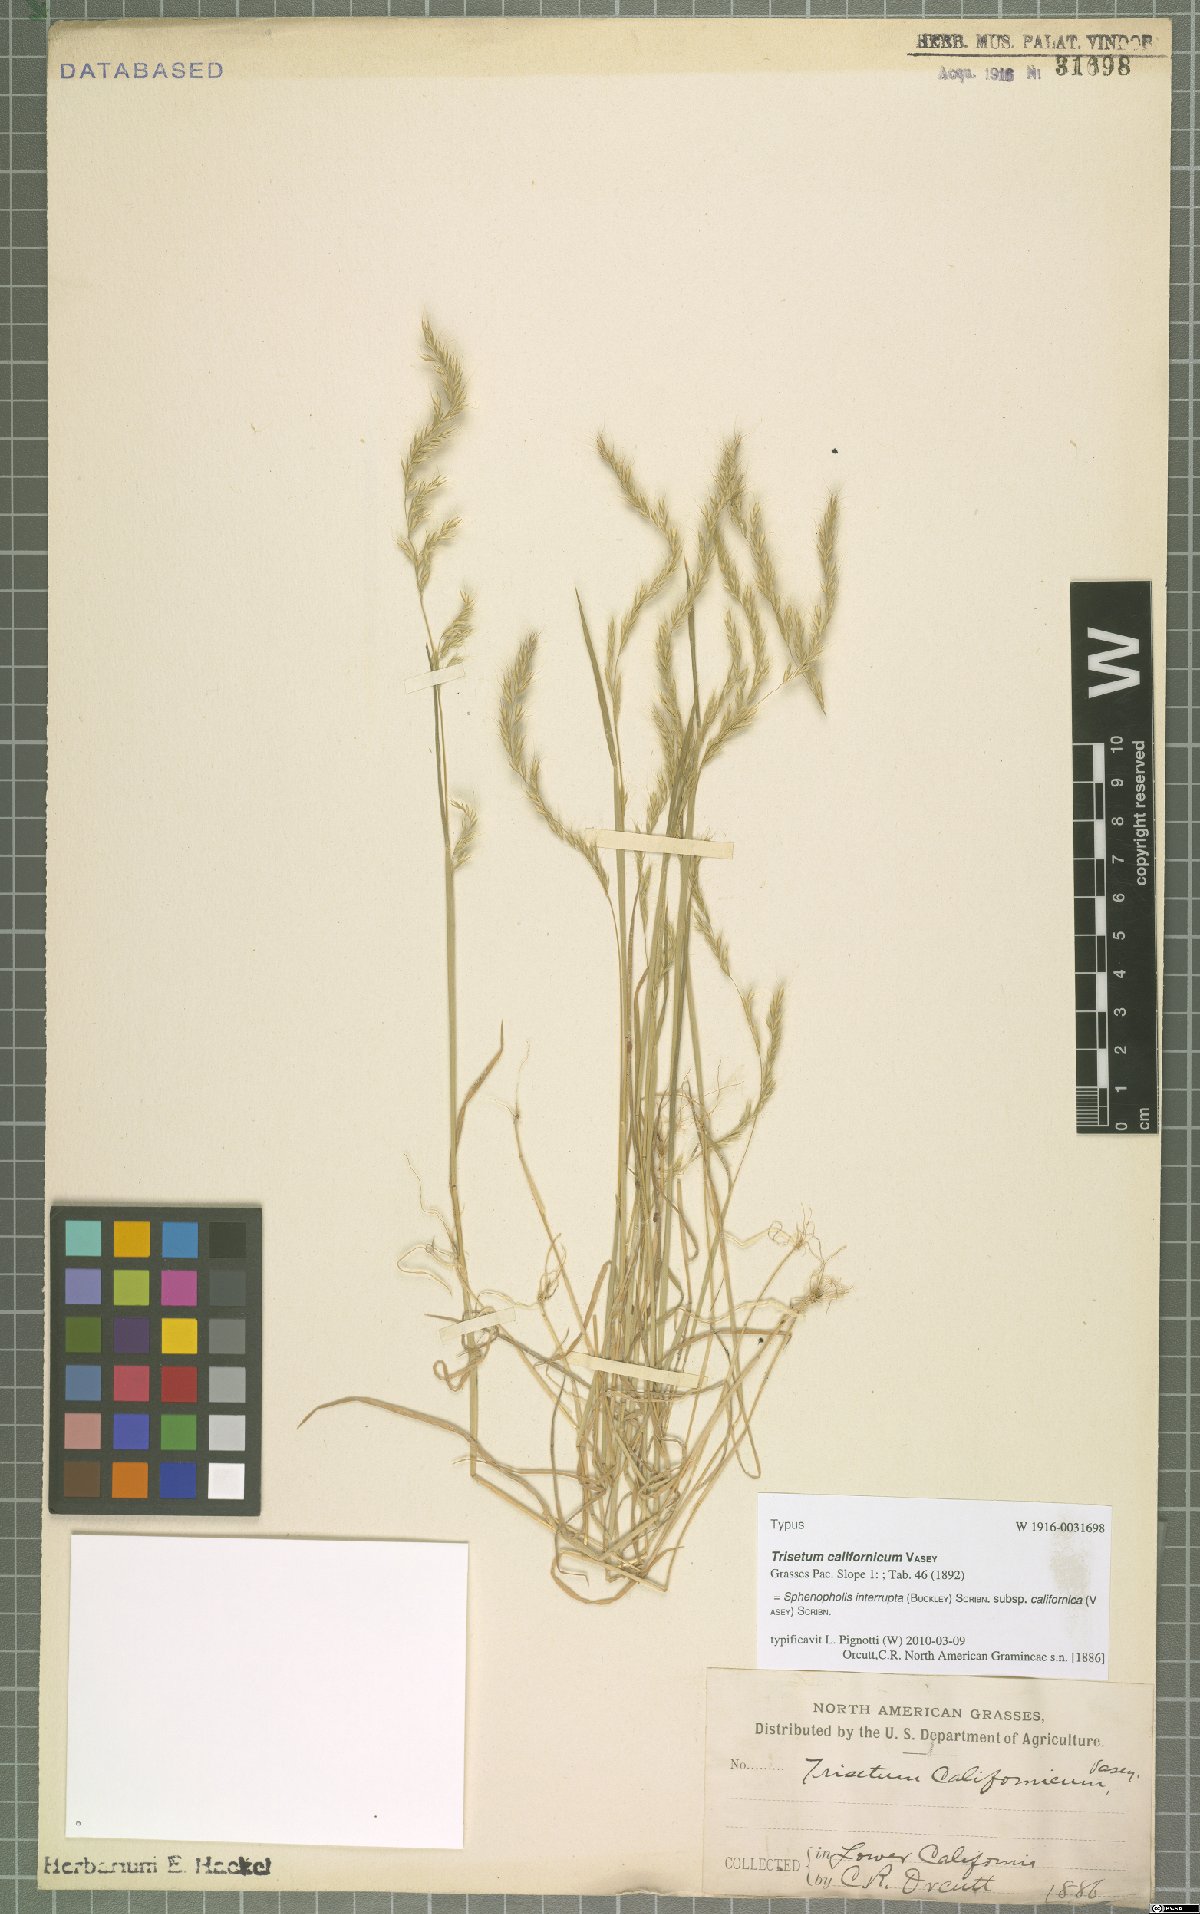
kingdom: Plantae
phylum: Tracheophyta
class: Liliopsida
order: Poales
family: Poaceae
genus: Sphenopholis
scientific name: Sphenopholis interrupta
